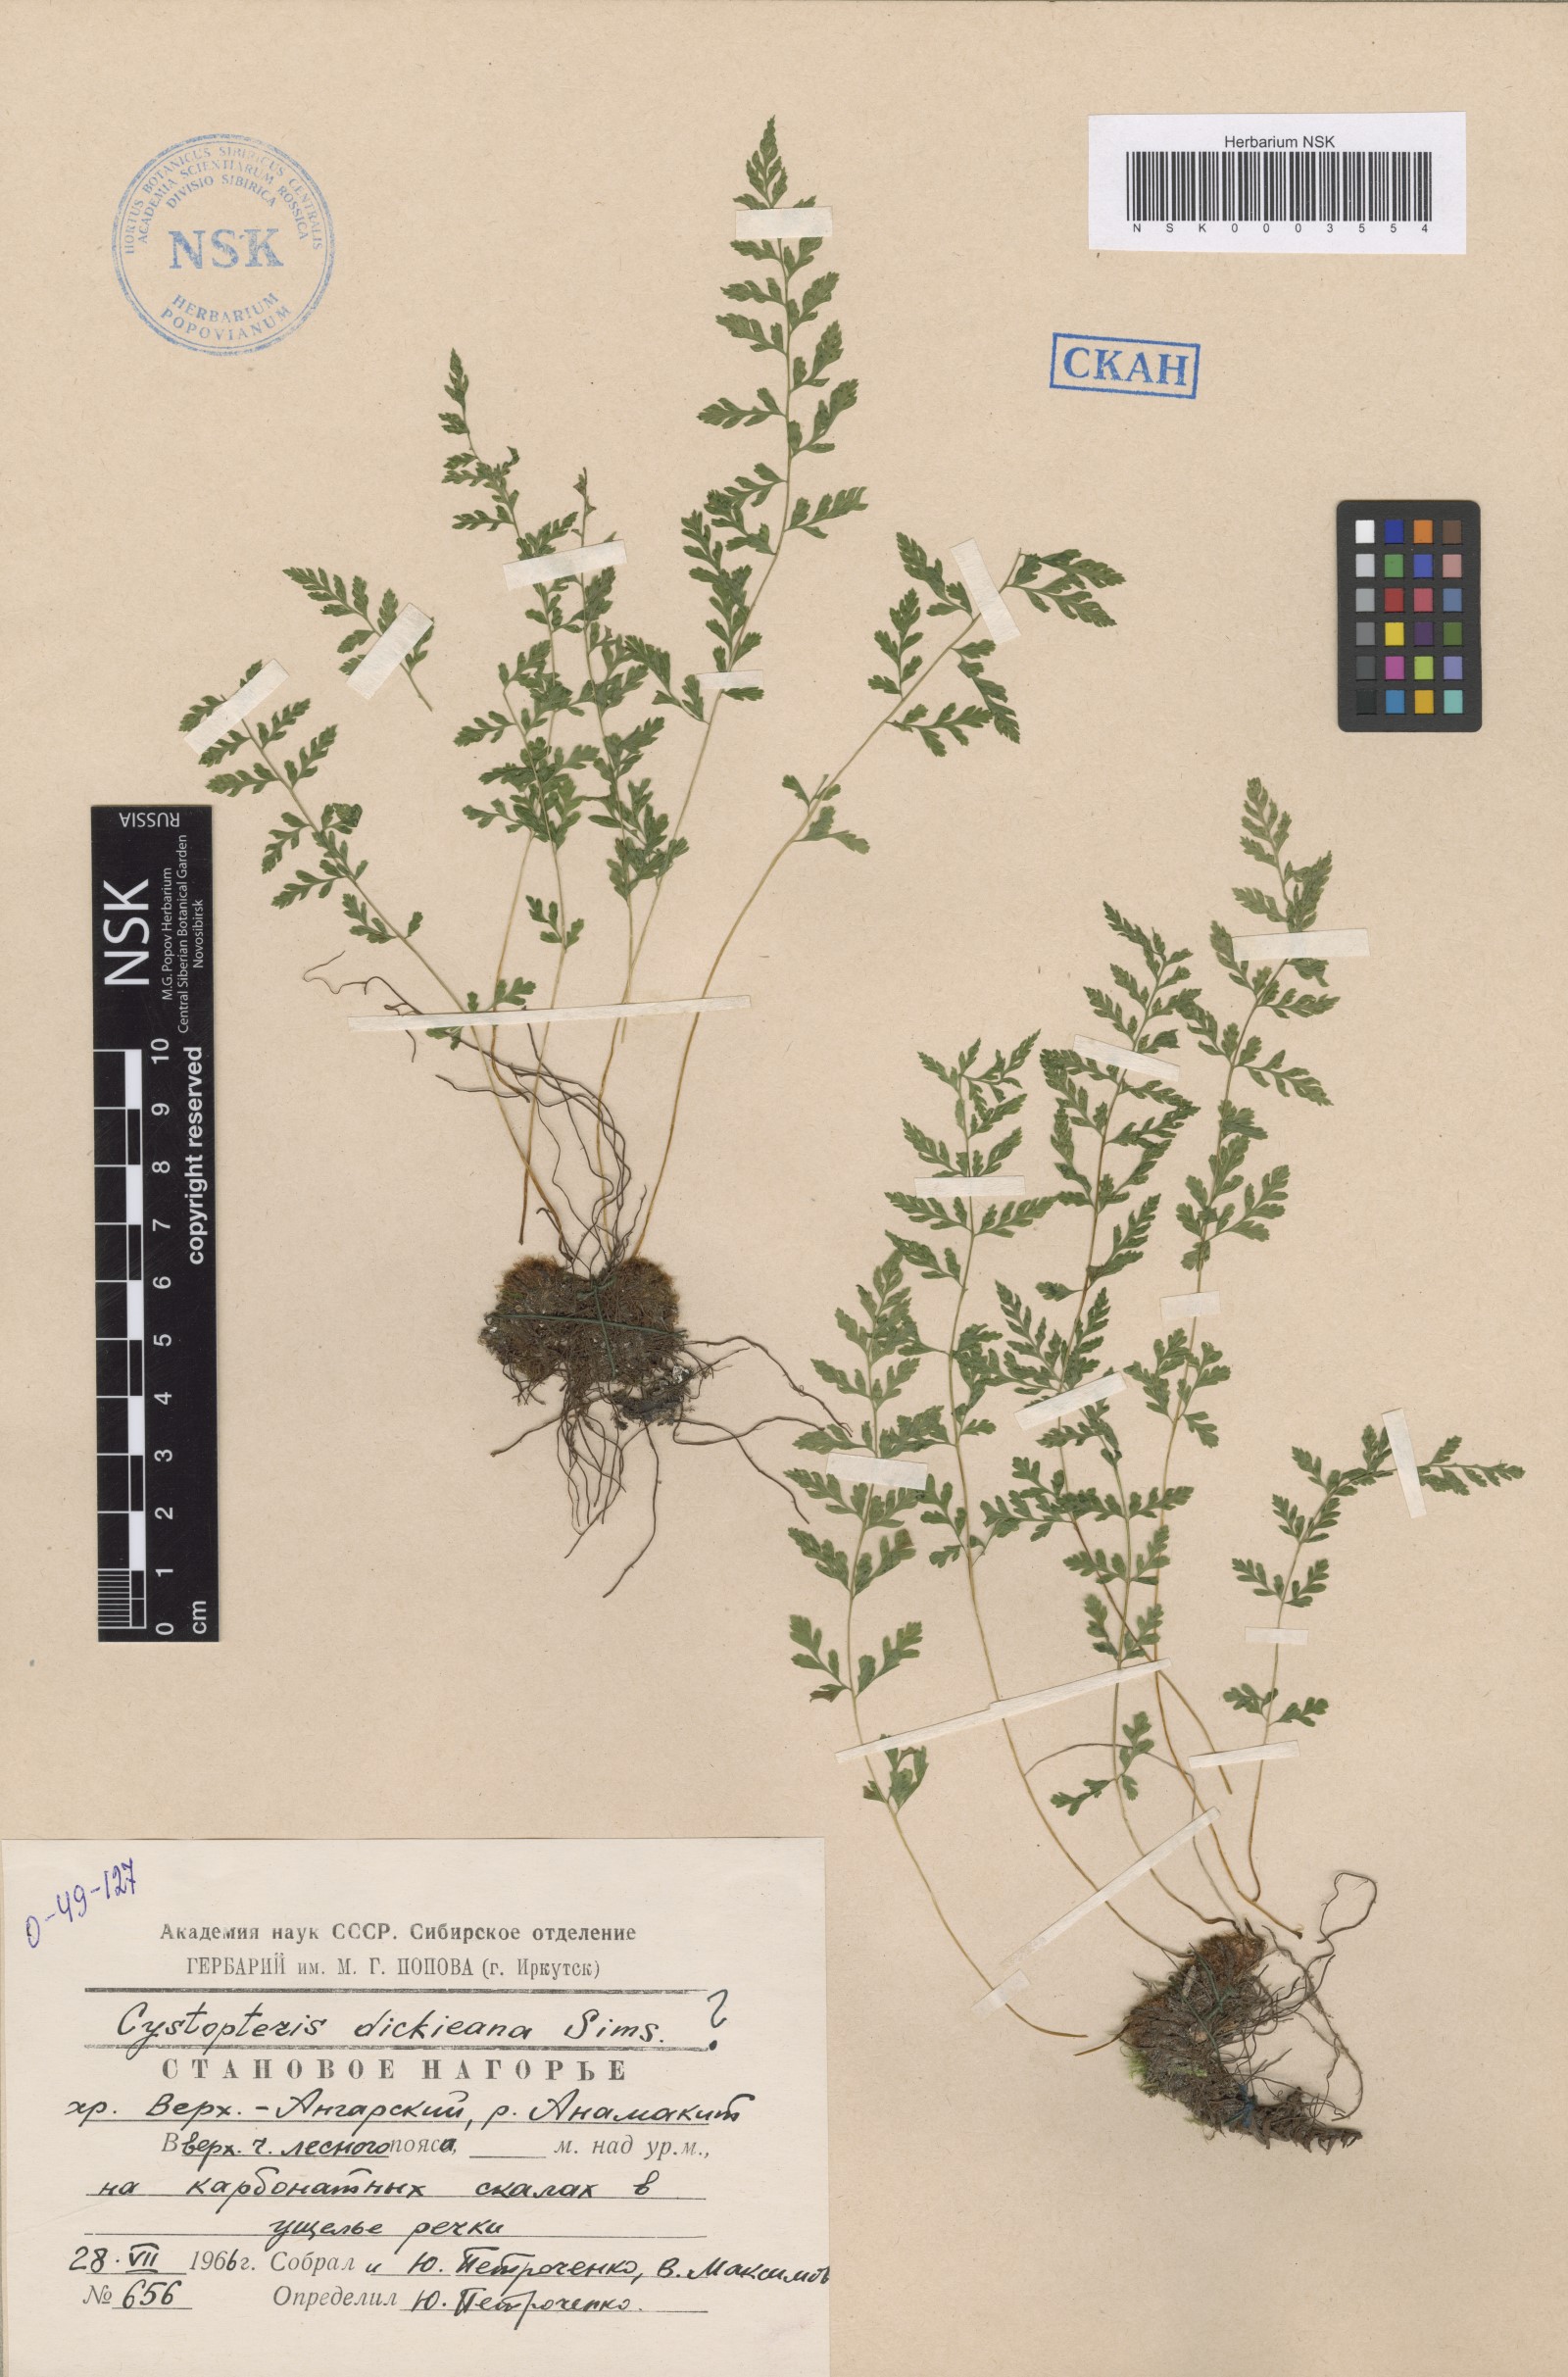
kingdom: Plantae
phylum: Tracheophyta
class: Polypodiopsida
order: Polypodiales
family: Cystopteridaceae
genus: Cystopteris
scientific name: Cystopteris dickieana
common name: Dickie's bladder-fern
